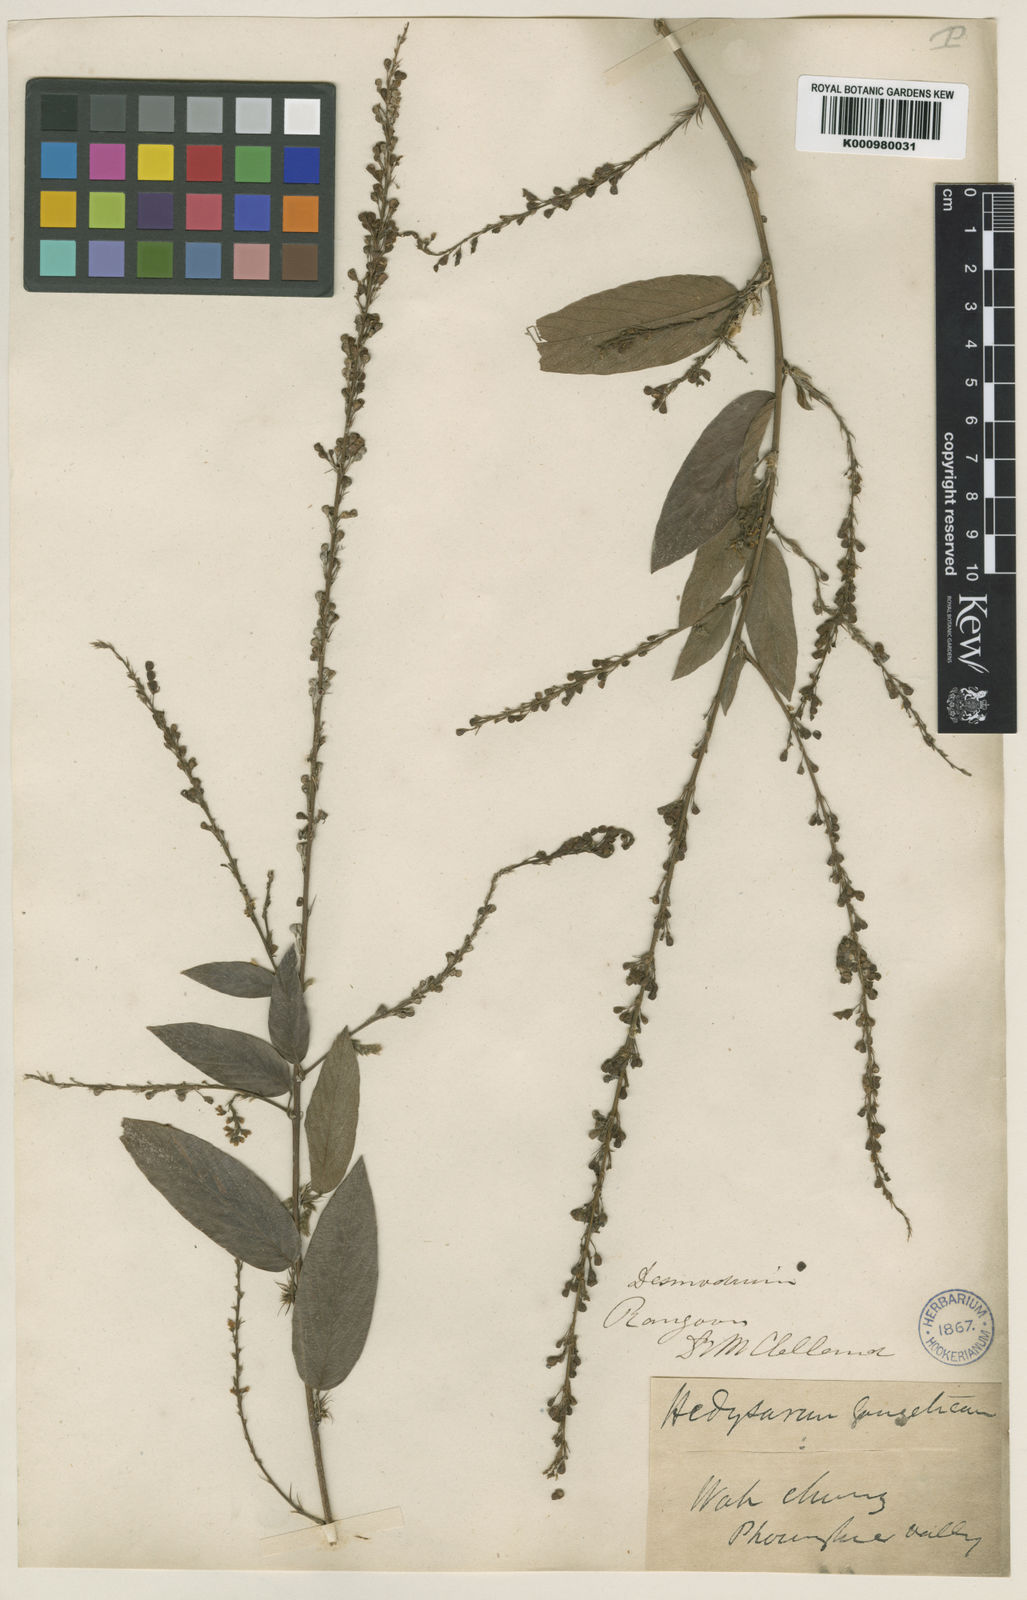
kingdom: Plantae
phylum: Tracheophyta
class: Magnoliopsida
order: Fabales
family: Fabaceae
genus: Pleurolobus
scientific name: Pleurolobus gangeticus
